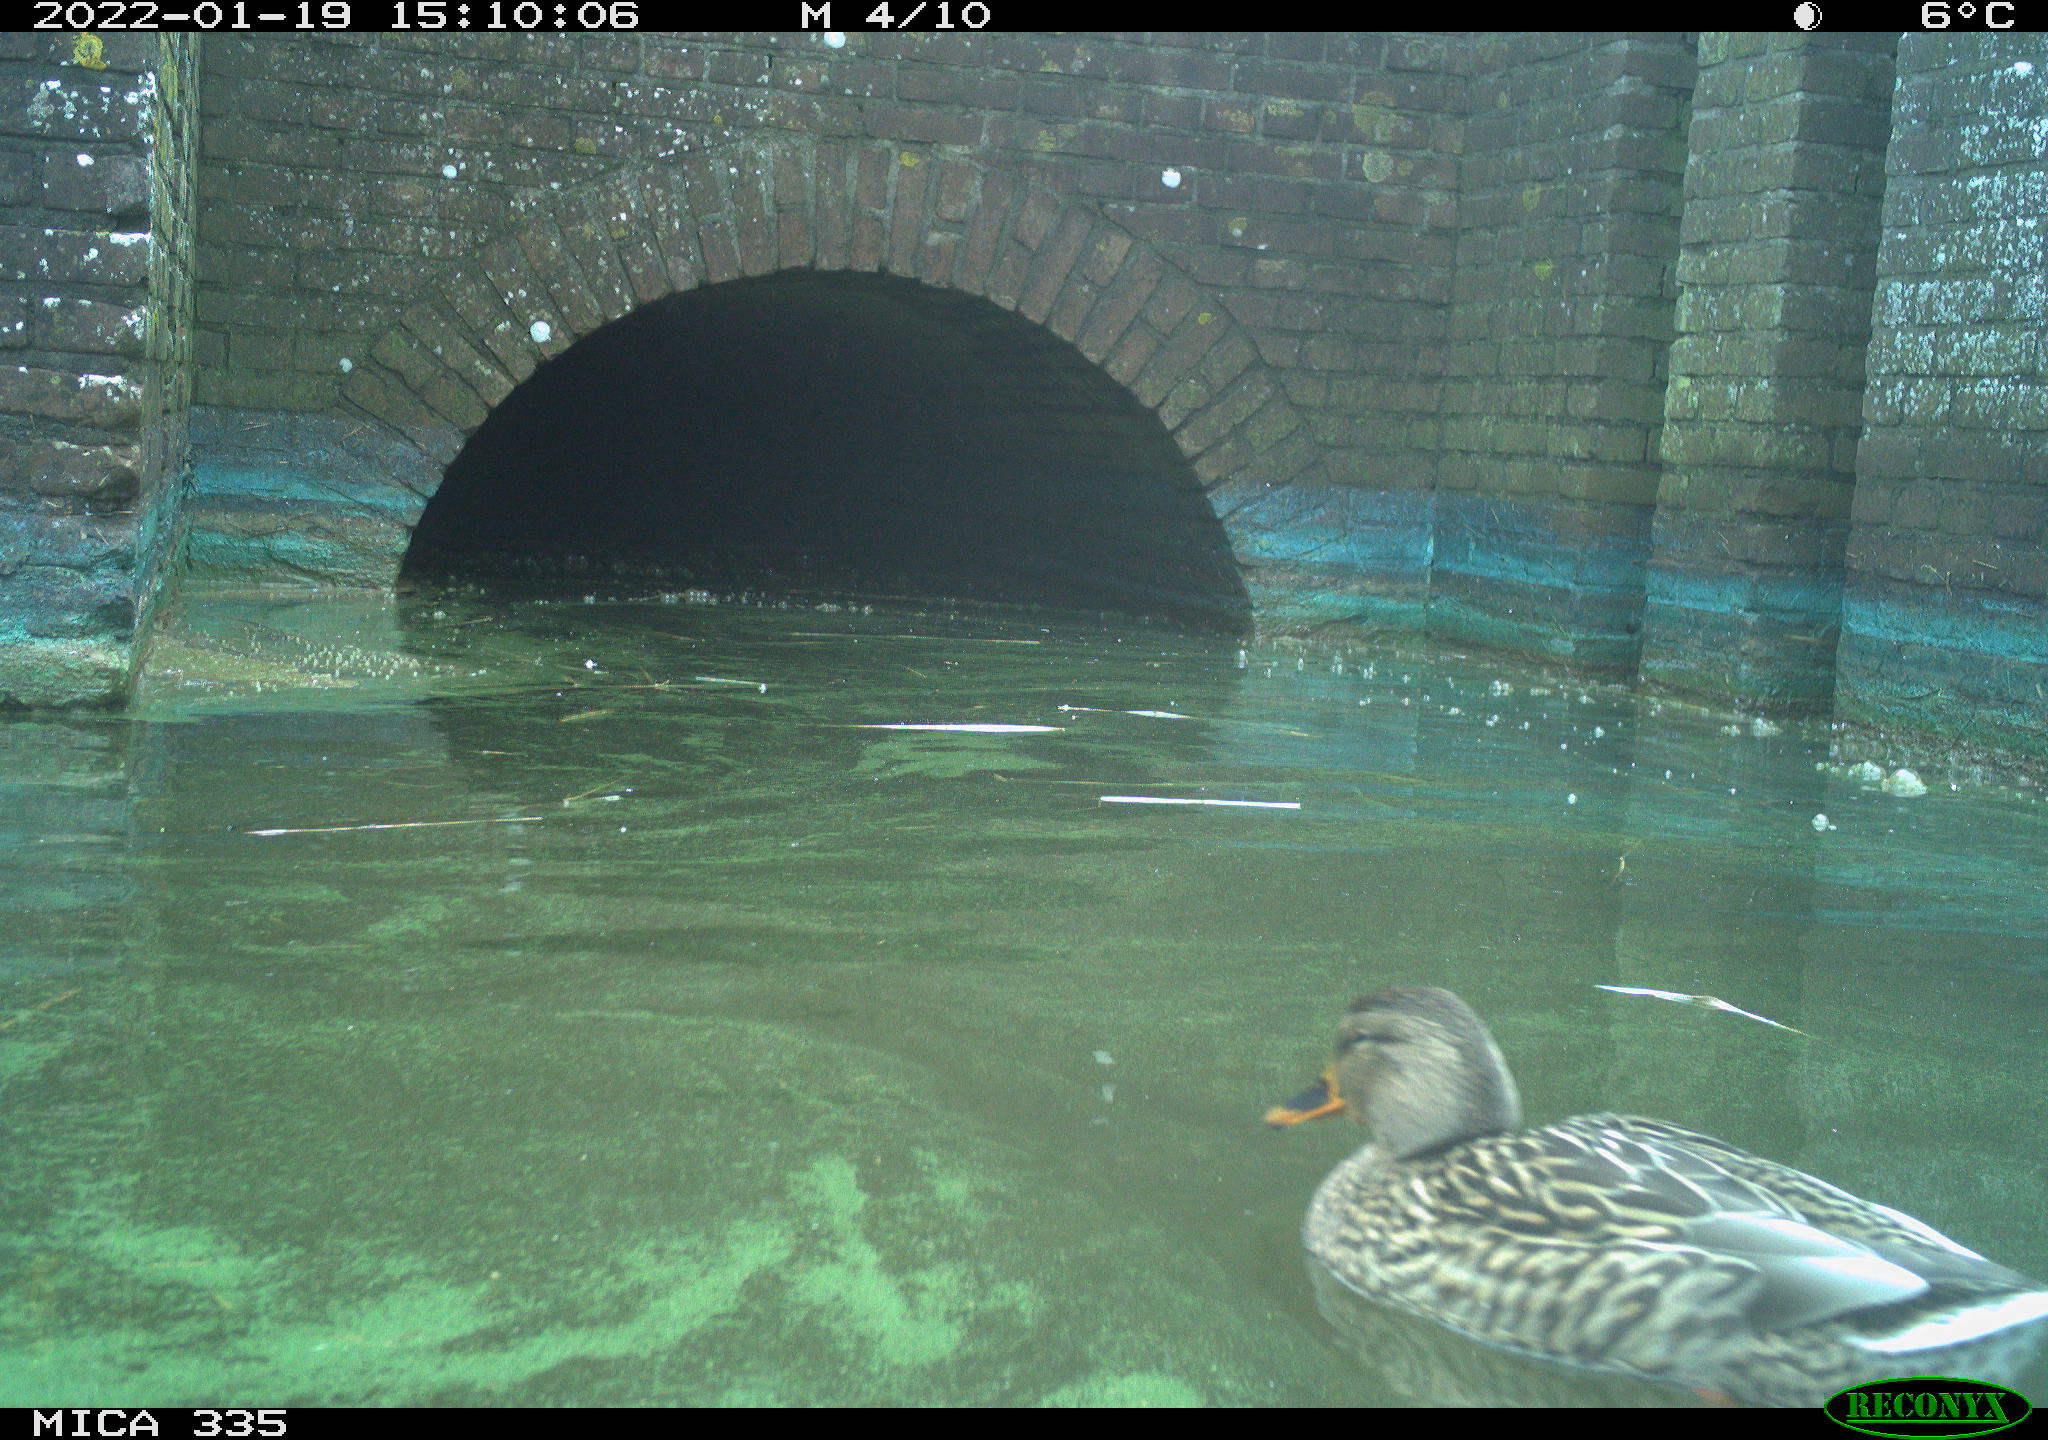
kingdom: Animalia
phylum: Chordata
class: Aves
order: Anseriformes
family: Anatidae
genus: Anas
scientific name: Anas platyrhynchos
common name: Mallard
